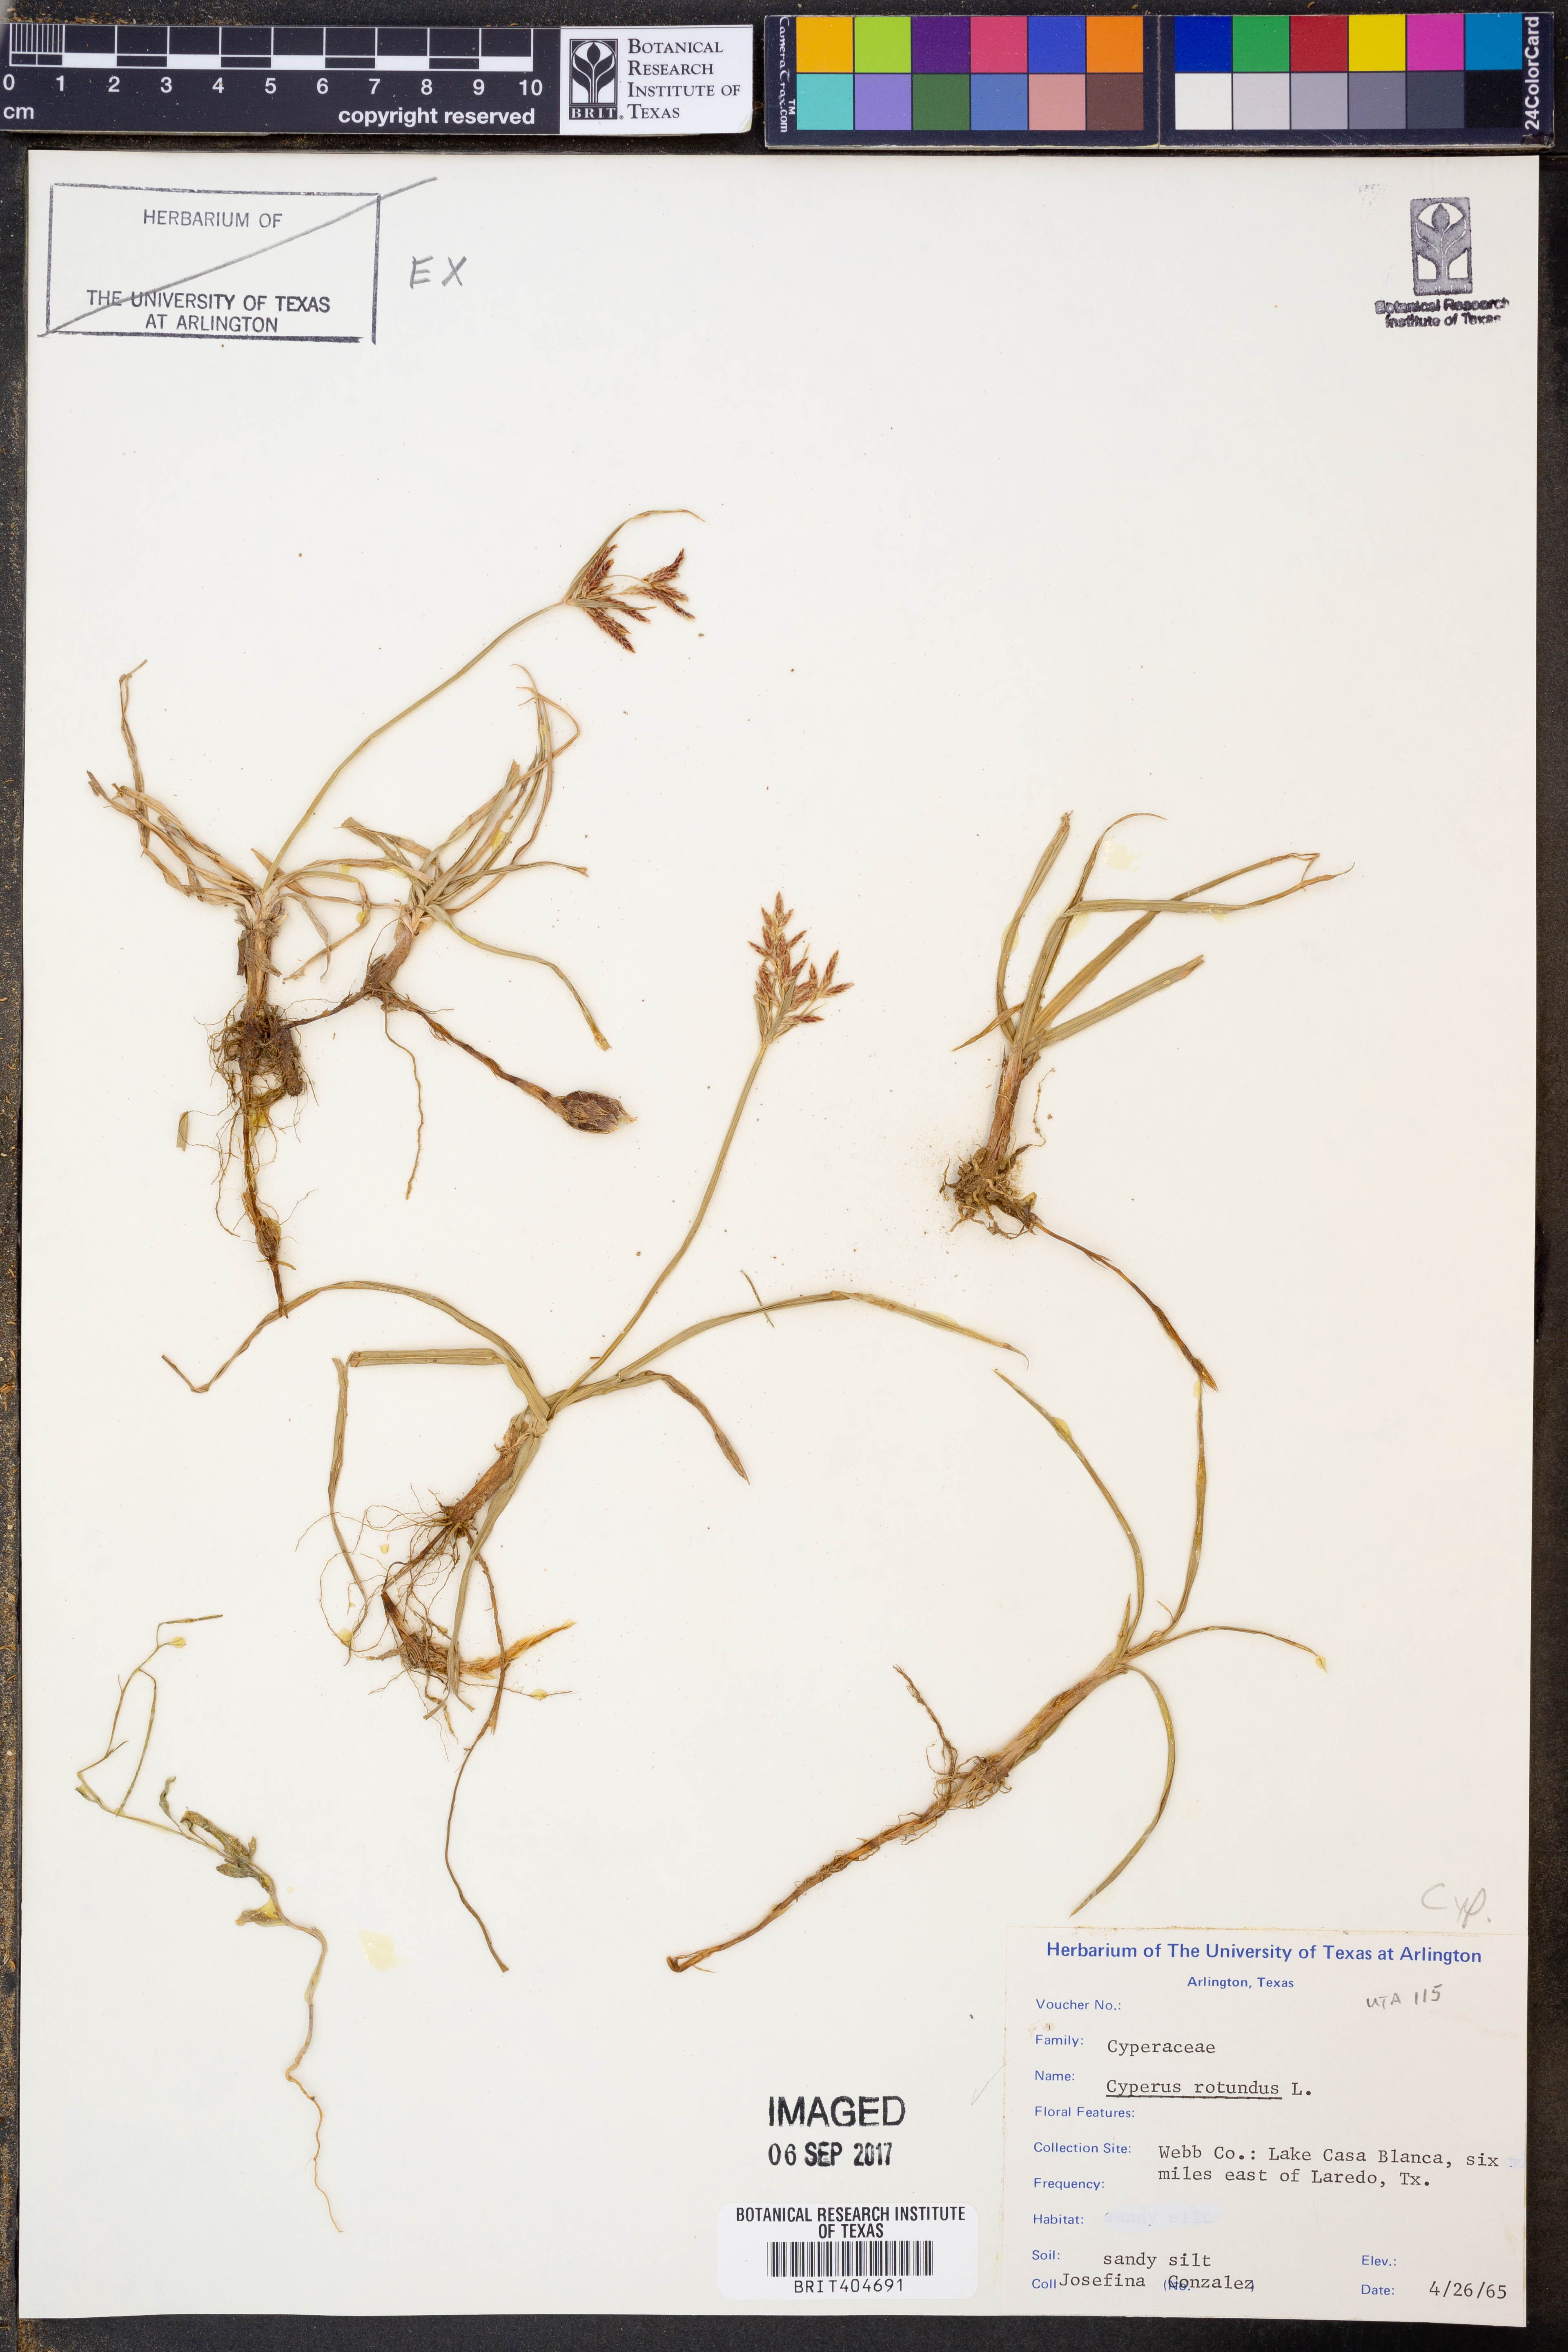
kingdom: Plantae
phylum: Tracheophyta
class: Liliopsida
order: Poales
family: Cyperaceae
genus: Cyperus
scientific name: Cyperus rotundus
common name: Nutgrass
